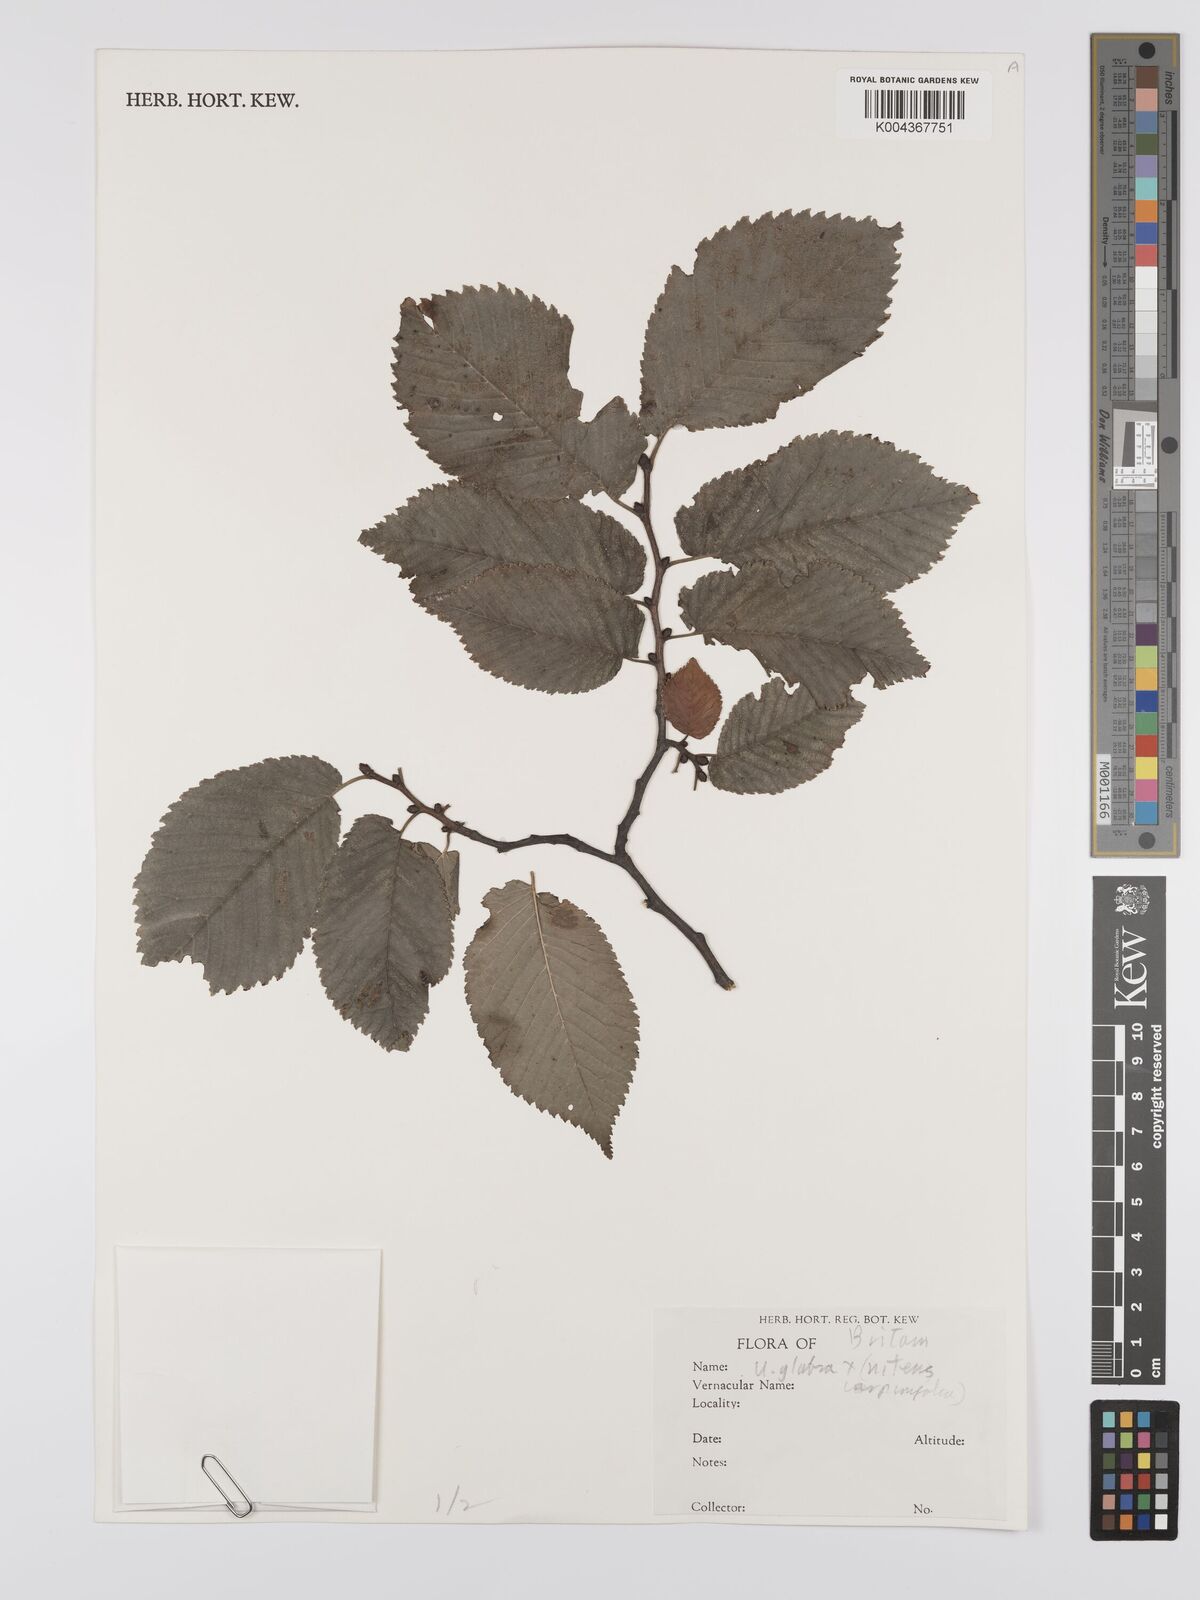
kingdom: Plantae
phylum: Tracheophyta
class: Magnoliopsida
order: Rosales
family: Ulmaceae
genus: Ulmus
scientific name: Ulmus minor
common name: Small-leaved elm
